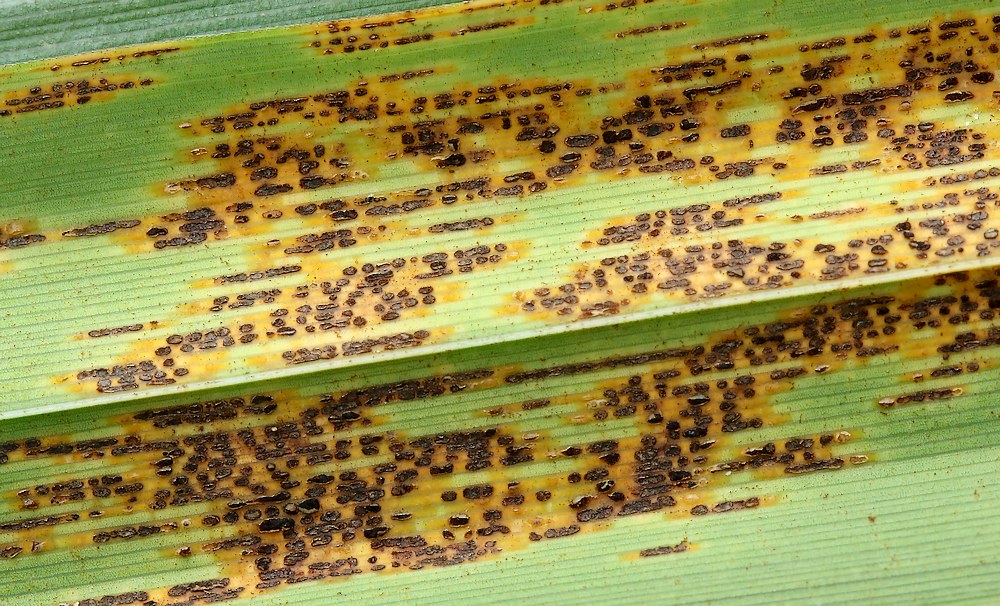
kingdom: Fungi
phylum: Basidiomycota
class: Pucciniomycetes
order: Pucciniales
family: Pucciniaceae
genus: Puccinia
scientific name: Puccinia ribesii-pendulae
